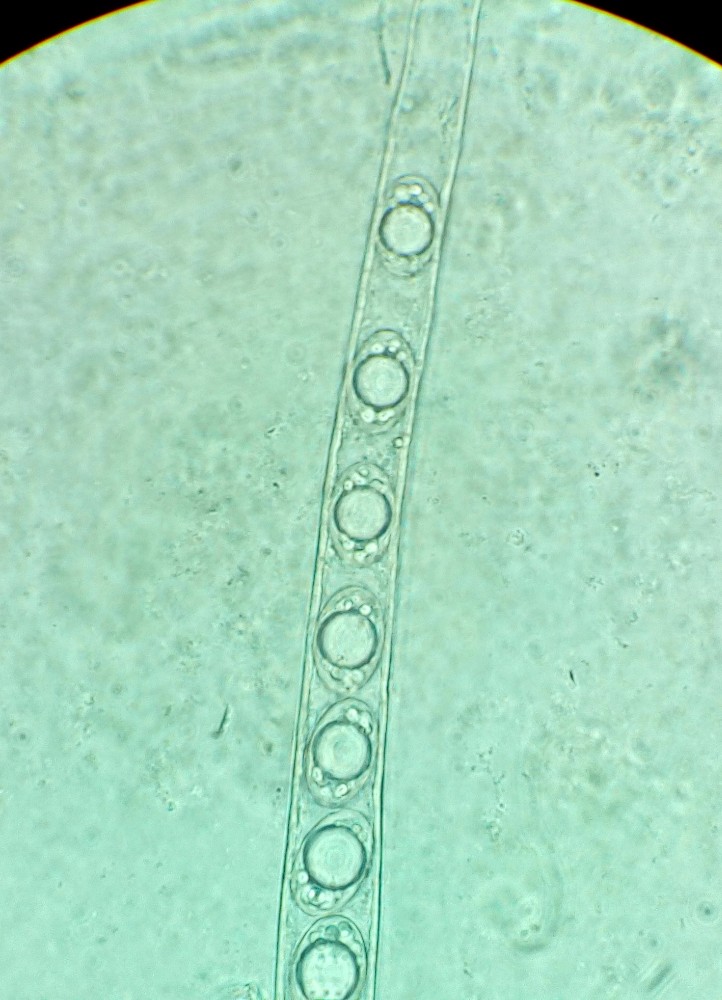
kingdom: Fungi
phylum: Ascomycota
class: Pezizomycetes
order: Pezizales
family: Helvellaceae
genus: Helvella
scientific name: Helvella fibrosa
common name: dunstokket foldhat
